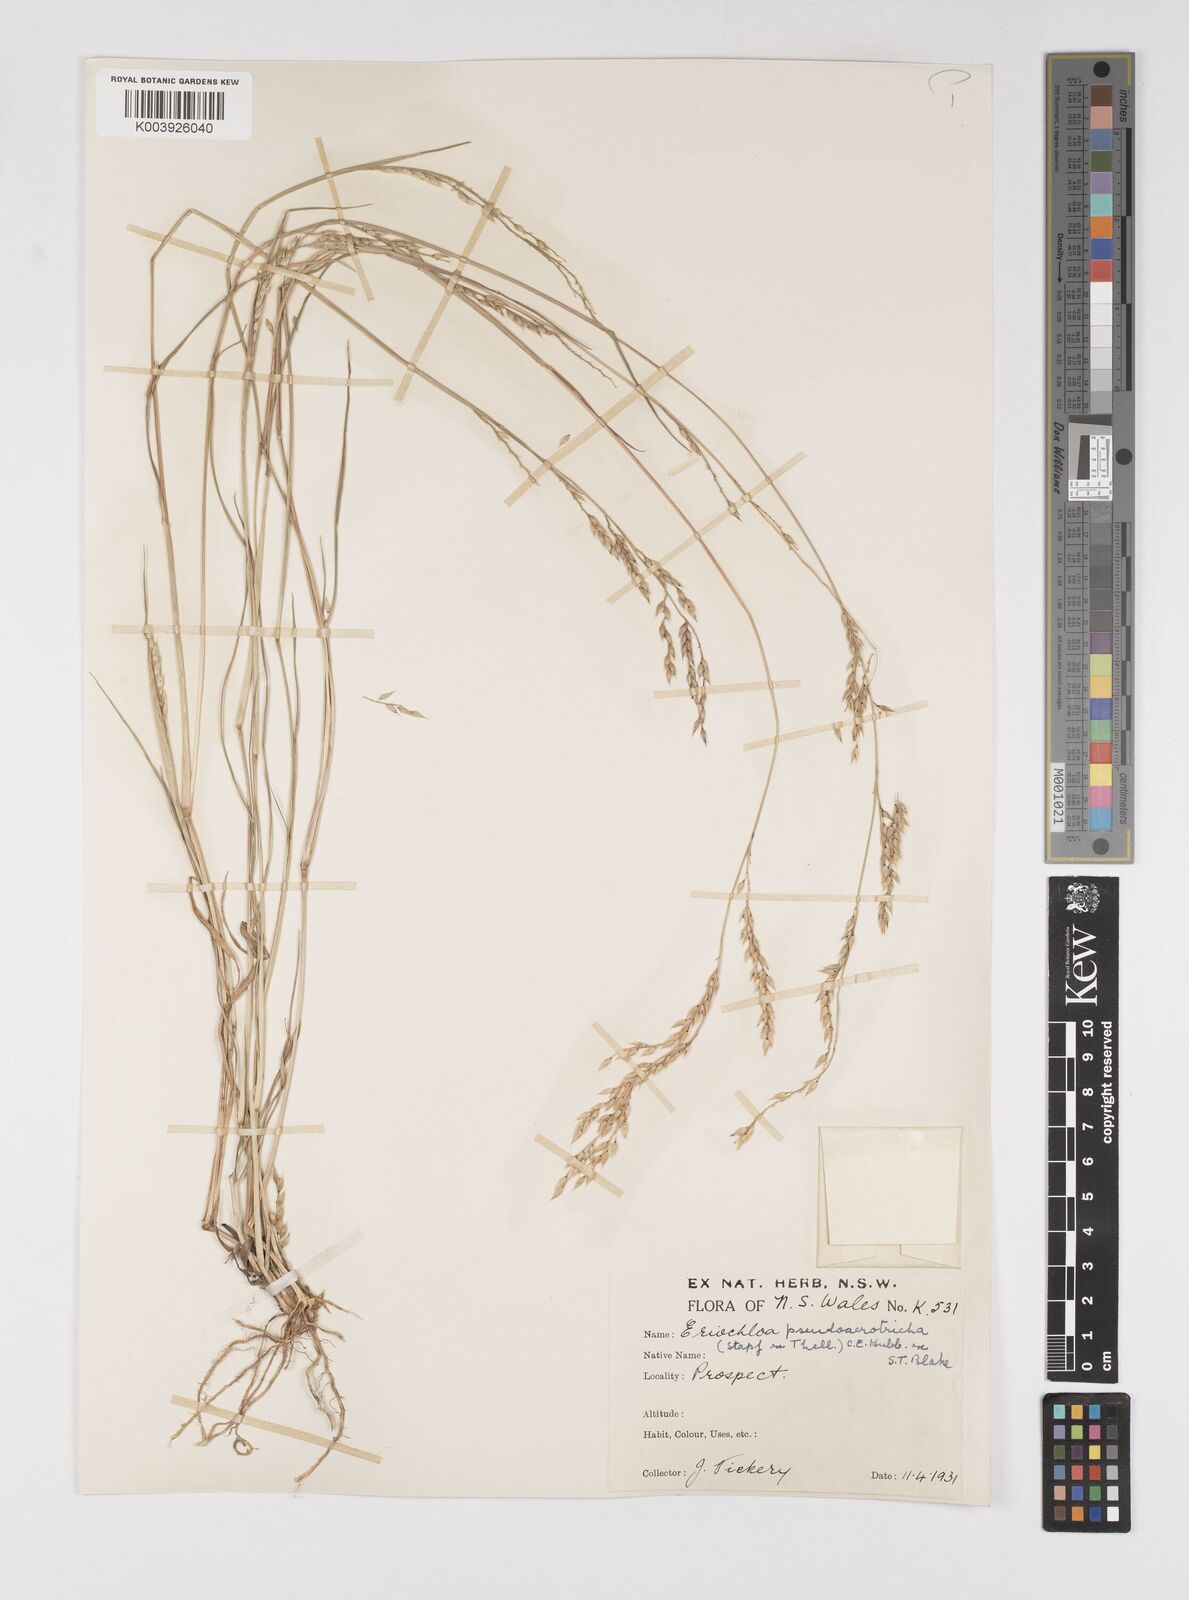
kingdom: Plantae
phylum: Tracheophyta
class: Liliopsida
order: Poales
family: Poaceae
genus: Eriochloa
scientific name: Eriochloa pseudoacrotricha
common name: Perennial cup-grass
